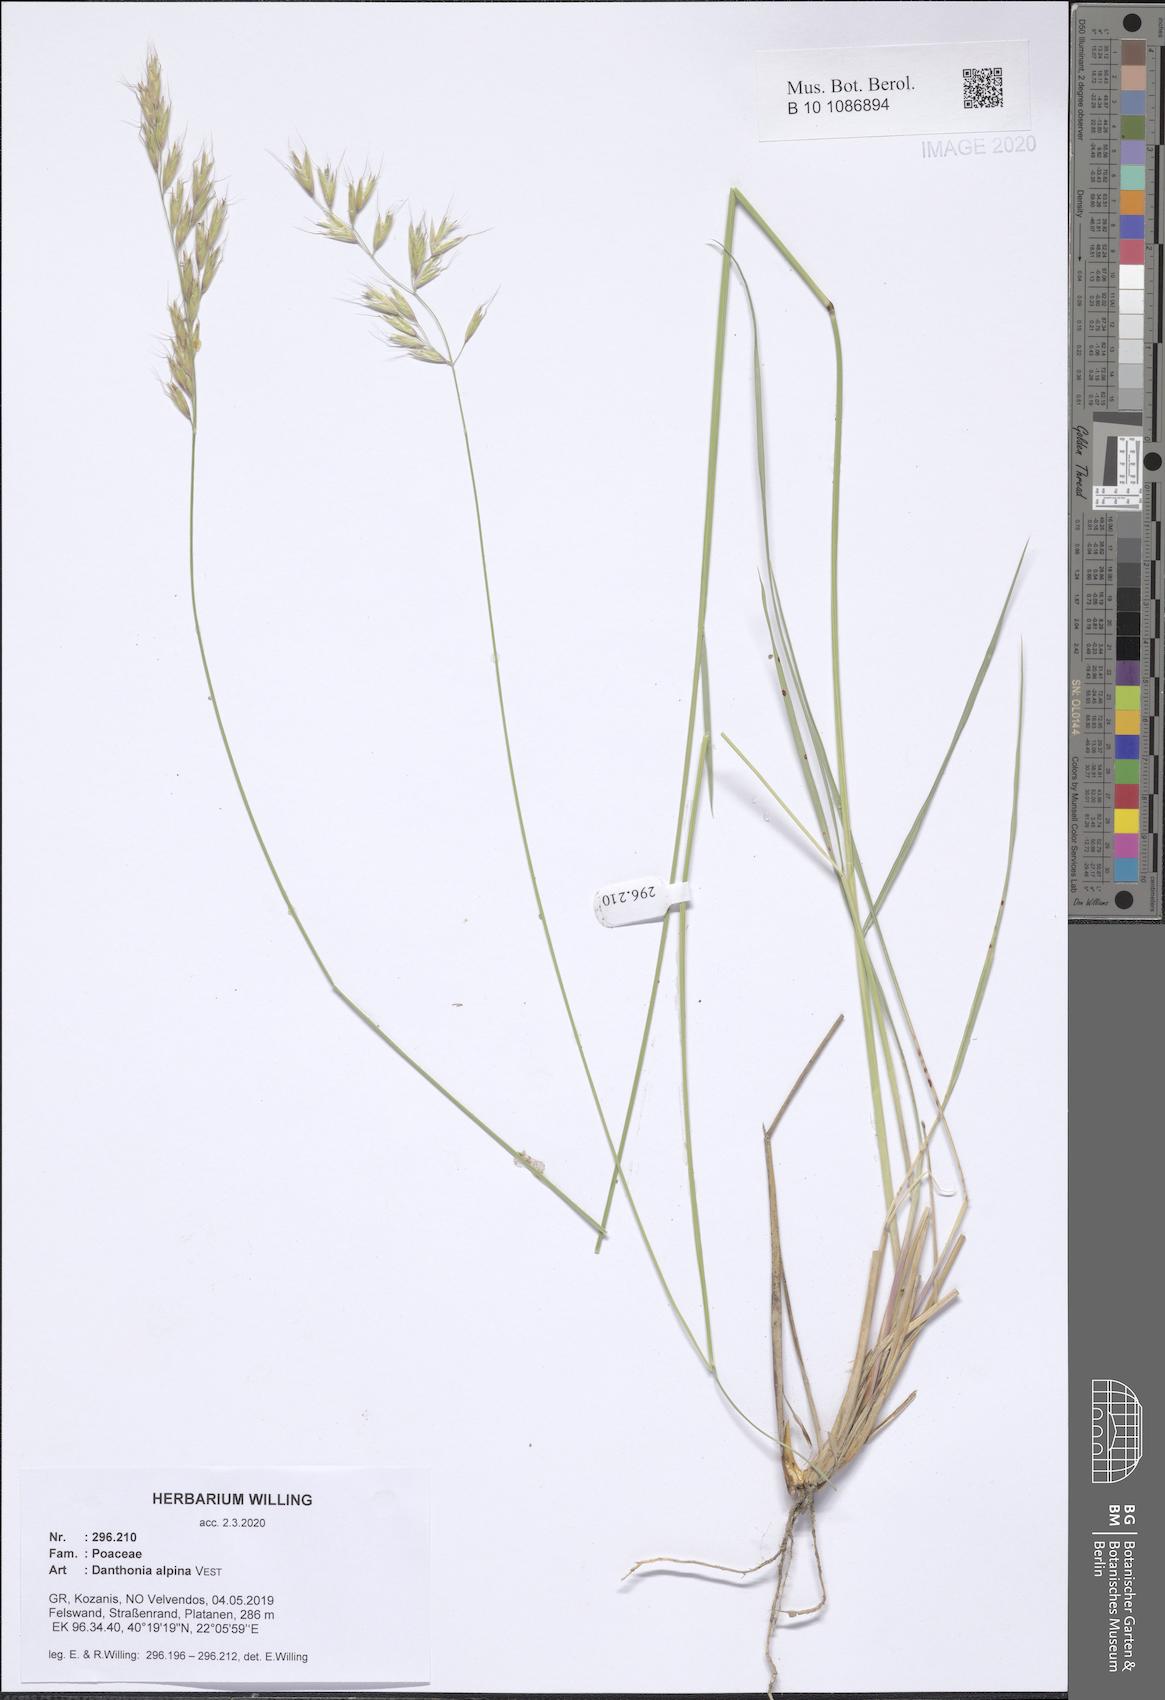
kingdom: Plantae
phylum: Tracheophyta
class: Liliopsida
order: Poales
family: Poaceae
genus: Danthonia
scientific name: Danthonia alpina
